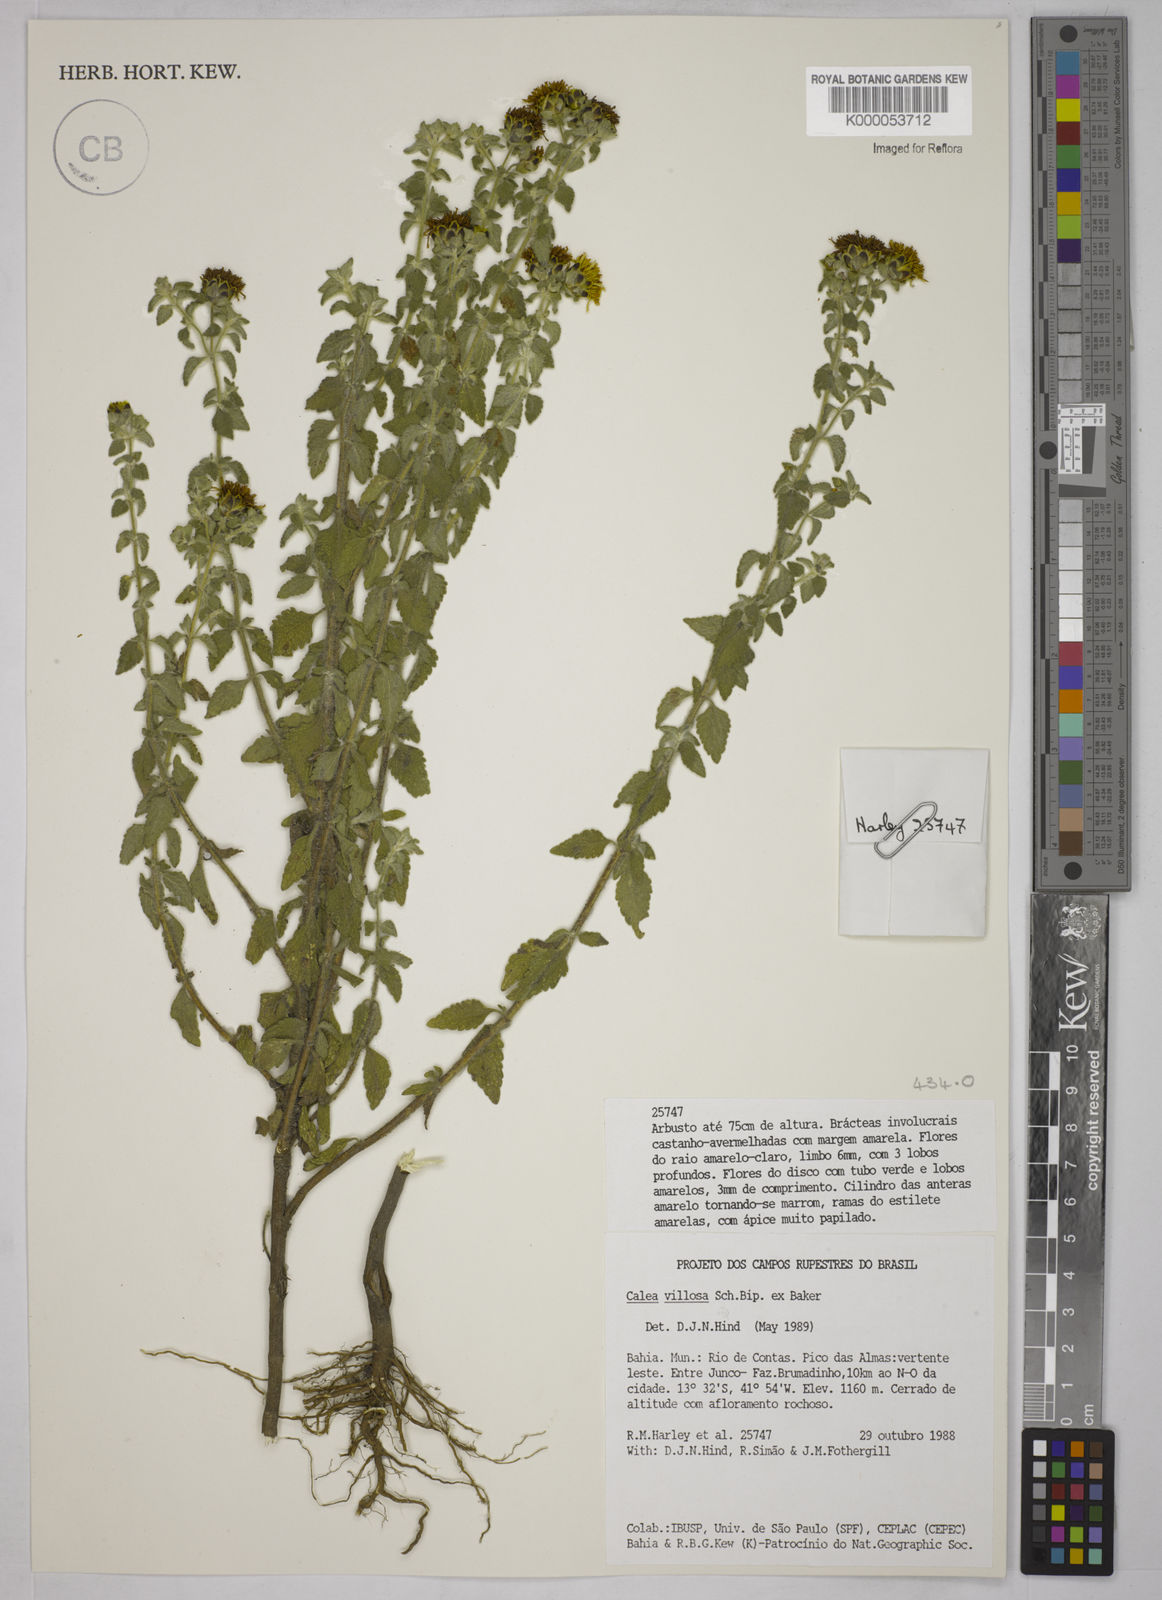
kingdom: Plantae
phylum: Tracheophyta
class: Magnoliopsida
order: Asterales
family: Asteraceae
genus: Calea
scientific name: Calea villosa
